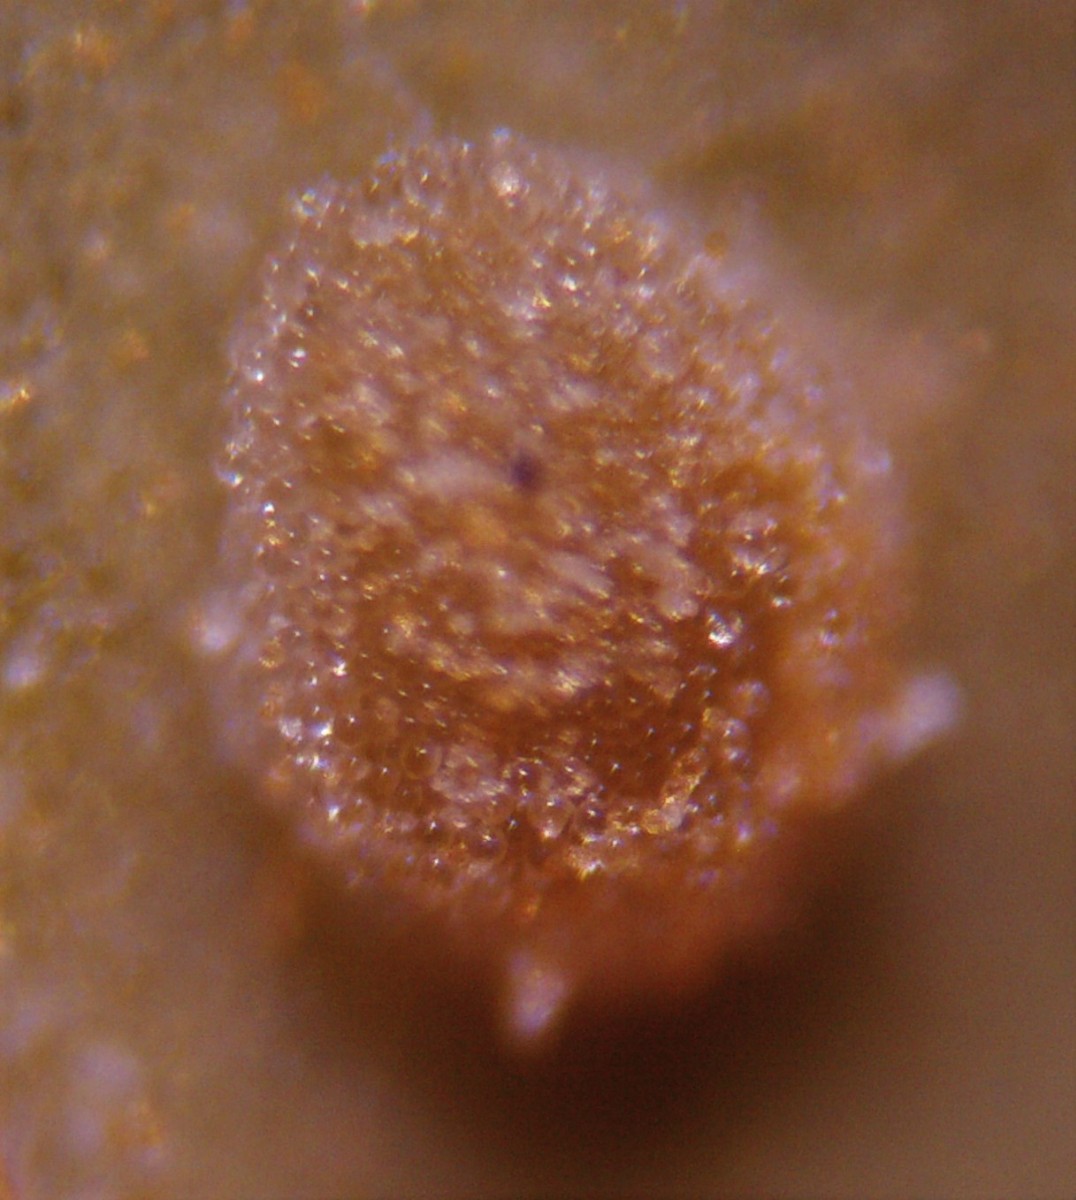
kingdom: Fungi
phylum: Basidiomycota
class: Pucciniomycetes
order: Pucciniales
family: Melampsoraceae
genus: Melampsora
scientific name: Melampsora euphorbiae
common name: vortemælk-skorperust
